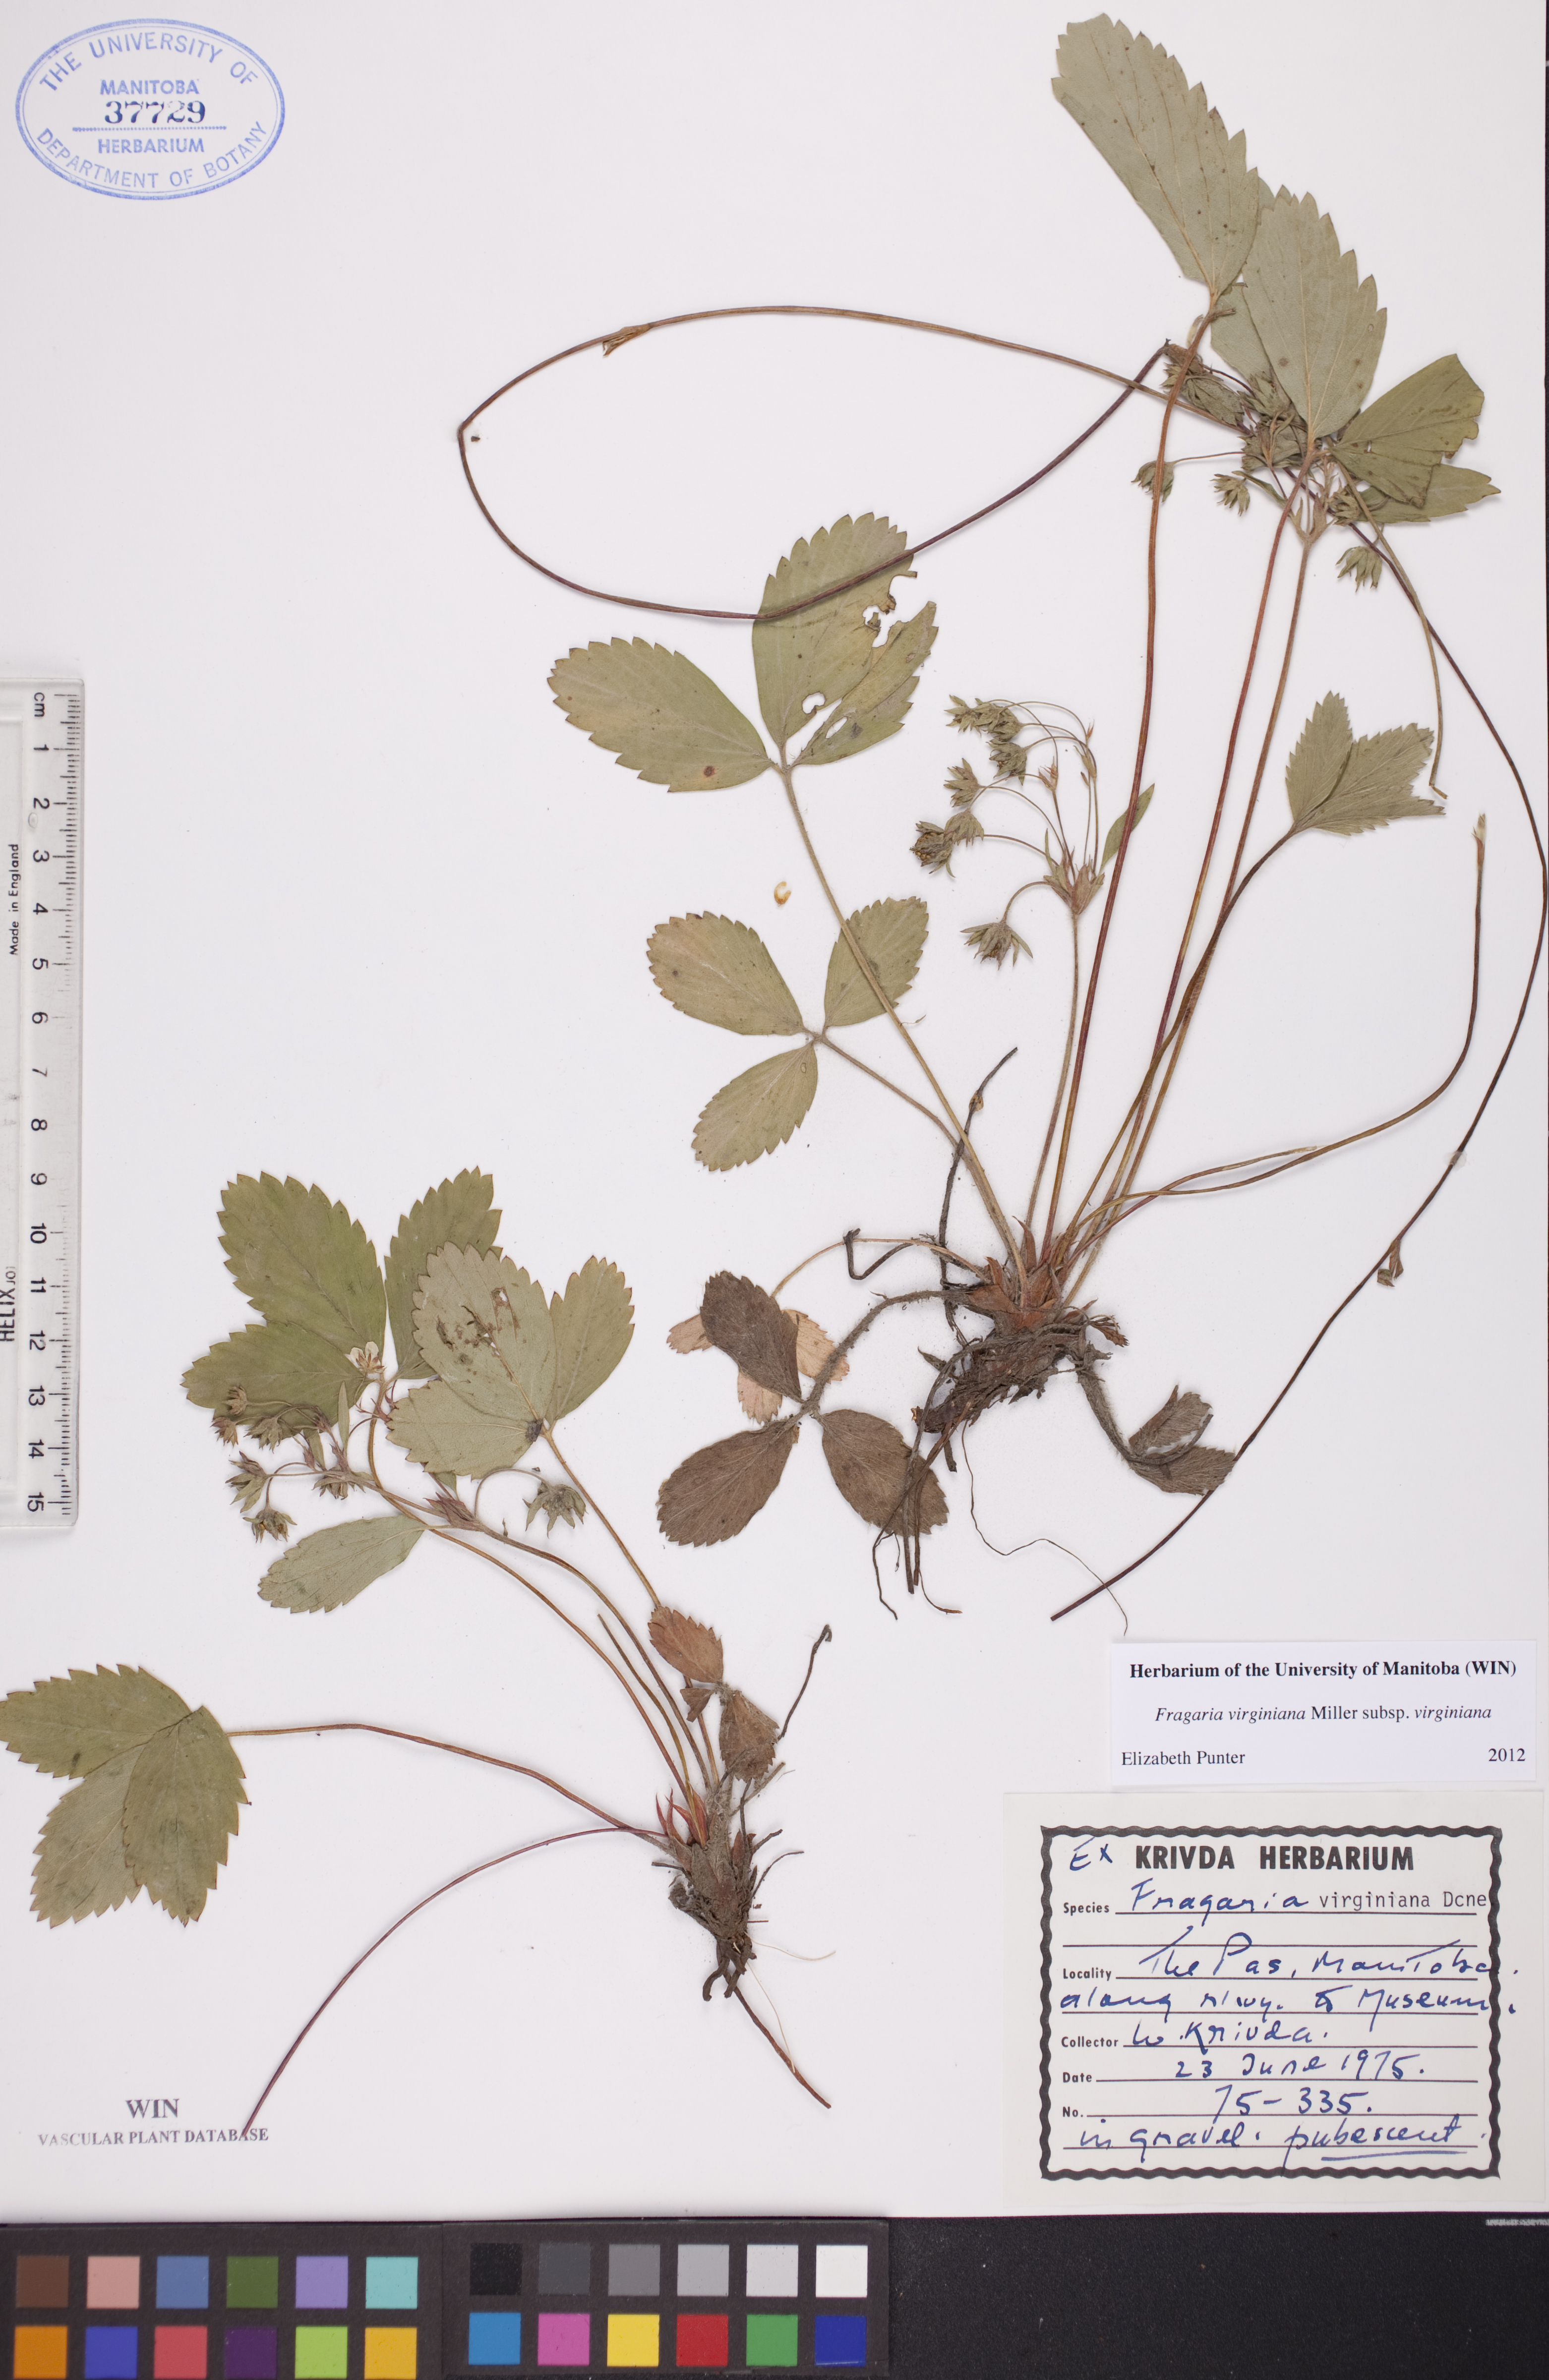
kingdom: Plantae
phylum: Tracheophyta
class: Magnoliopsida
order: Rosales
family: Rosaceae
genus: Fragaria
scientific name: Fragaria virginiana
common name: Thickleaved wild strawberry
